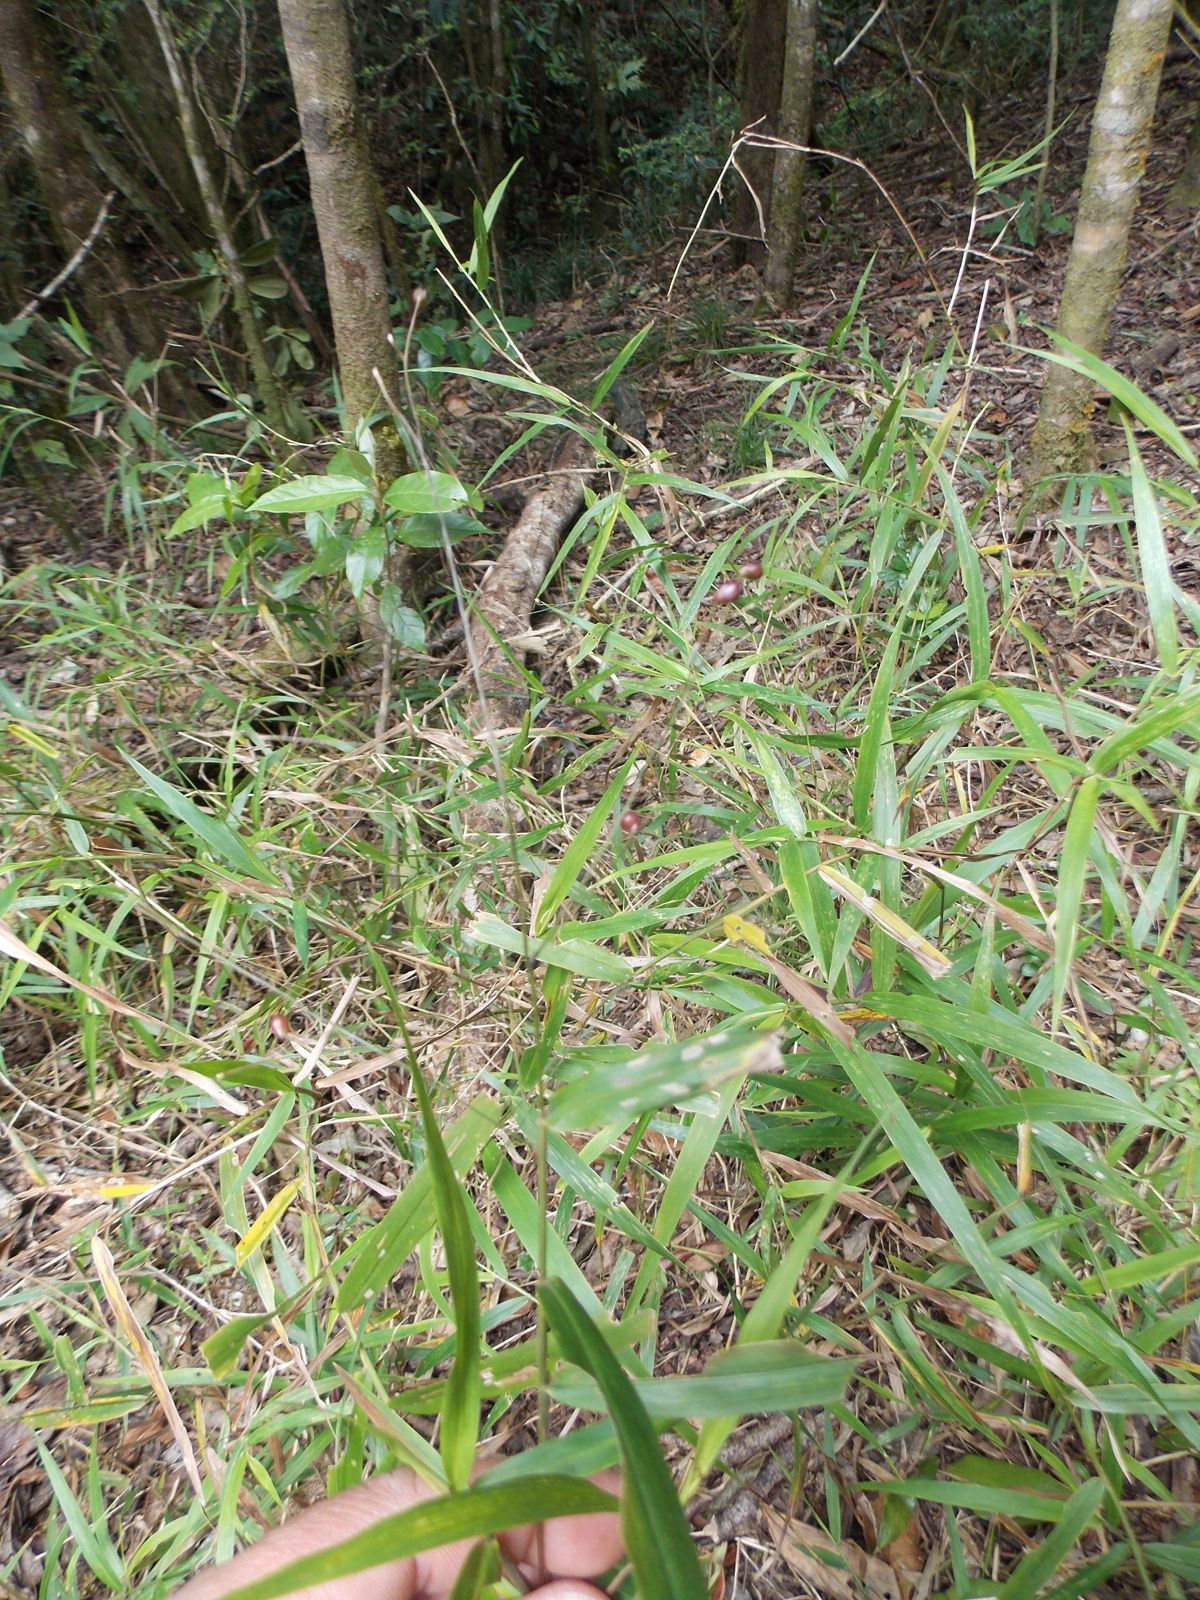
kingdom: Plantae
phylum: Tracheophyta
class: Liliopsida
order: Poales
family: Poaceae
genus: Lasiacis
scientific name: Lasiacis
